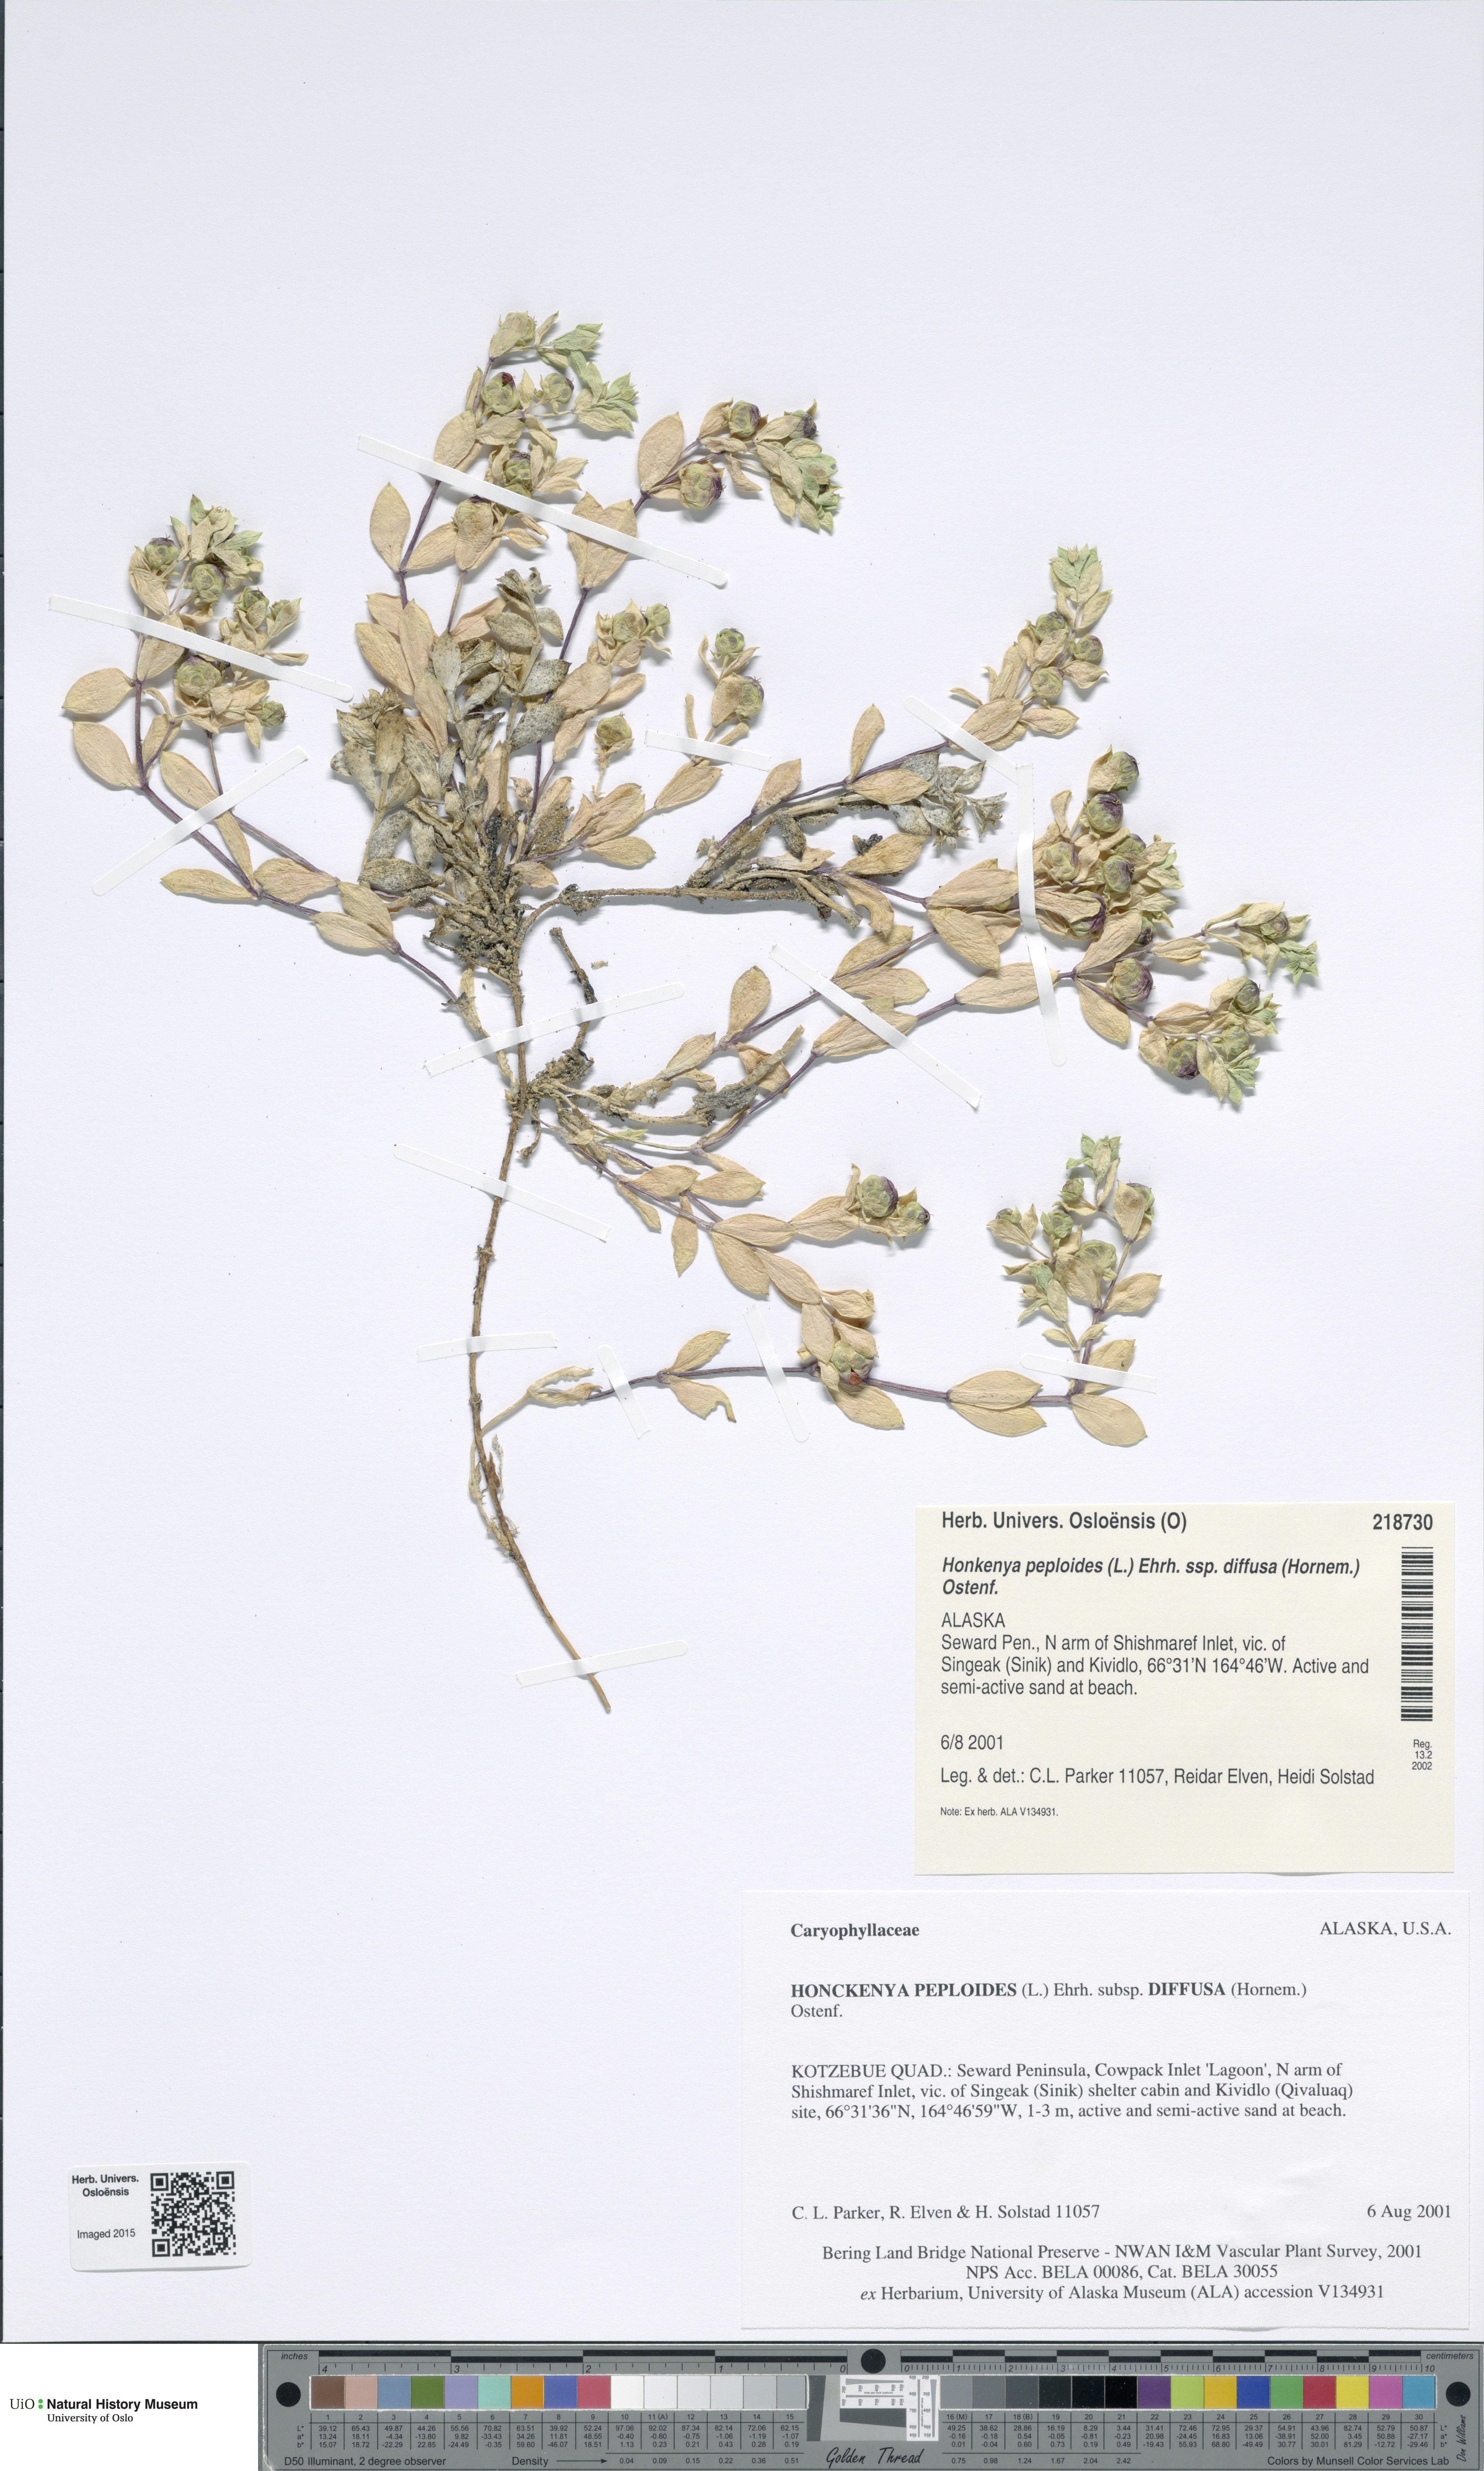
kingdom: Plantae
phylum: Tracheophyta
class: Magnoliopsida
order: Caryophyllales
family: Caryophyllaceae
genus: Honckenya
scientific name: Honckenya peploides
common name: Sea sandwort
